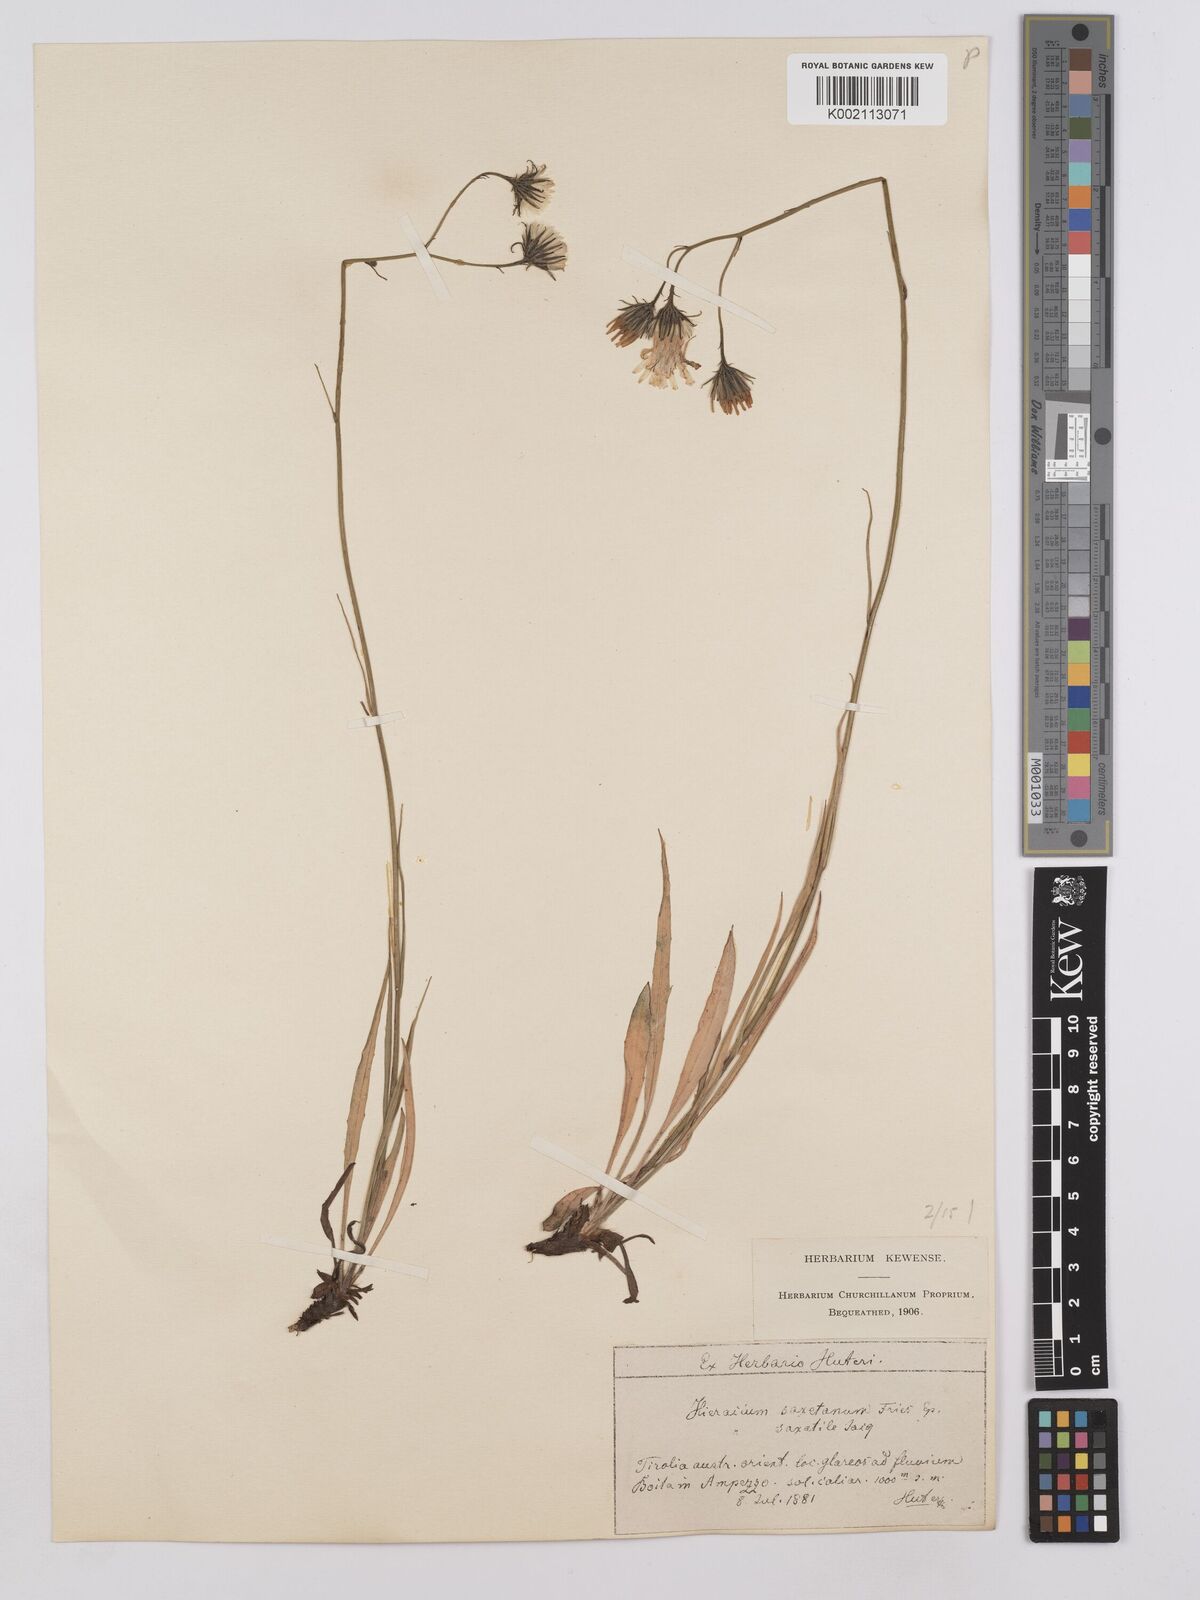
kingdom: Plantae
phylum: Tracheophyta
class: Magnoliopsida
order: Asterales
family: Asteraceae
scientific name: Asteraceae
